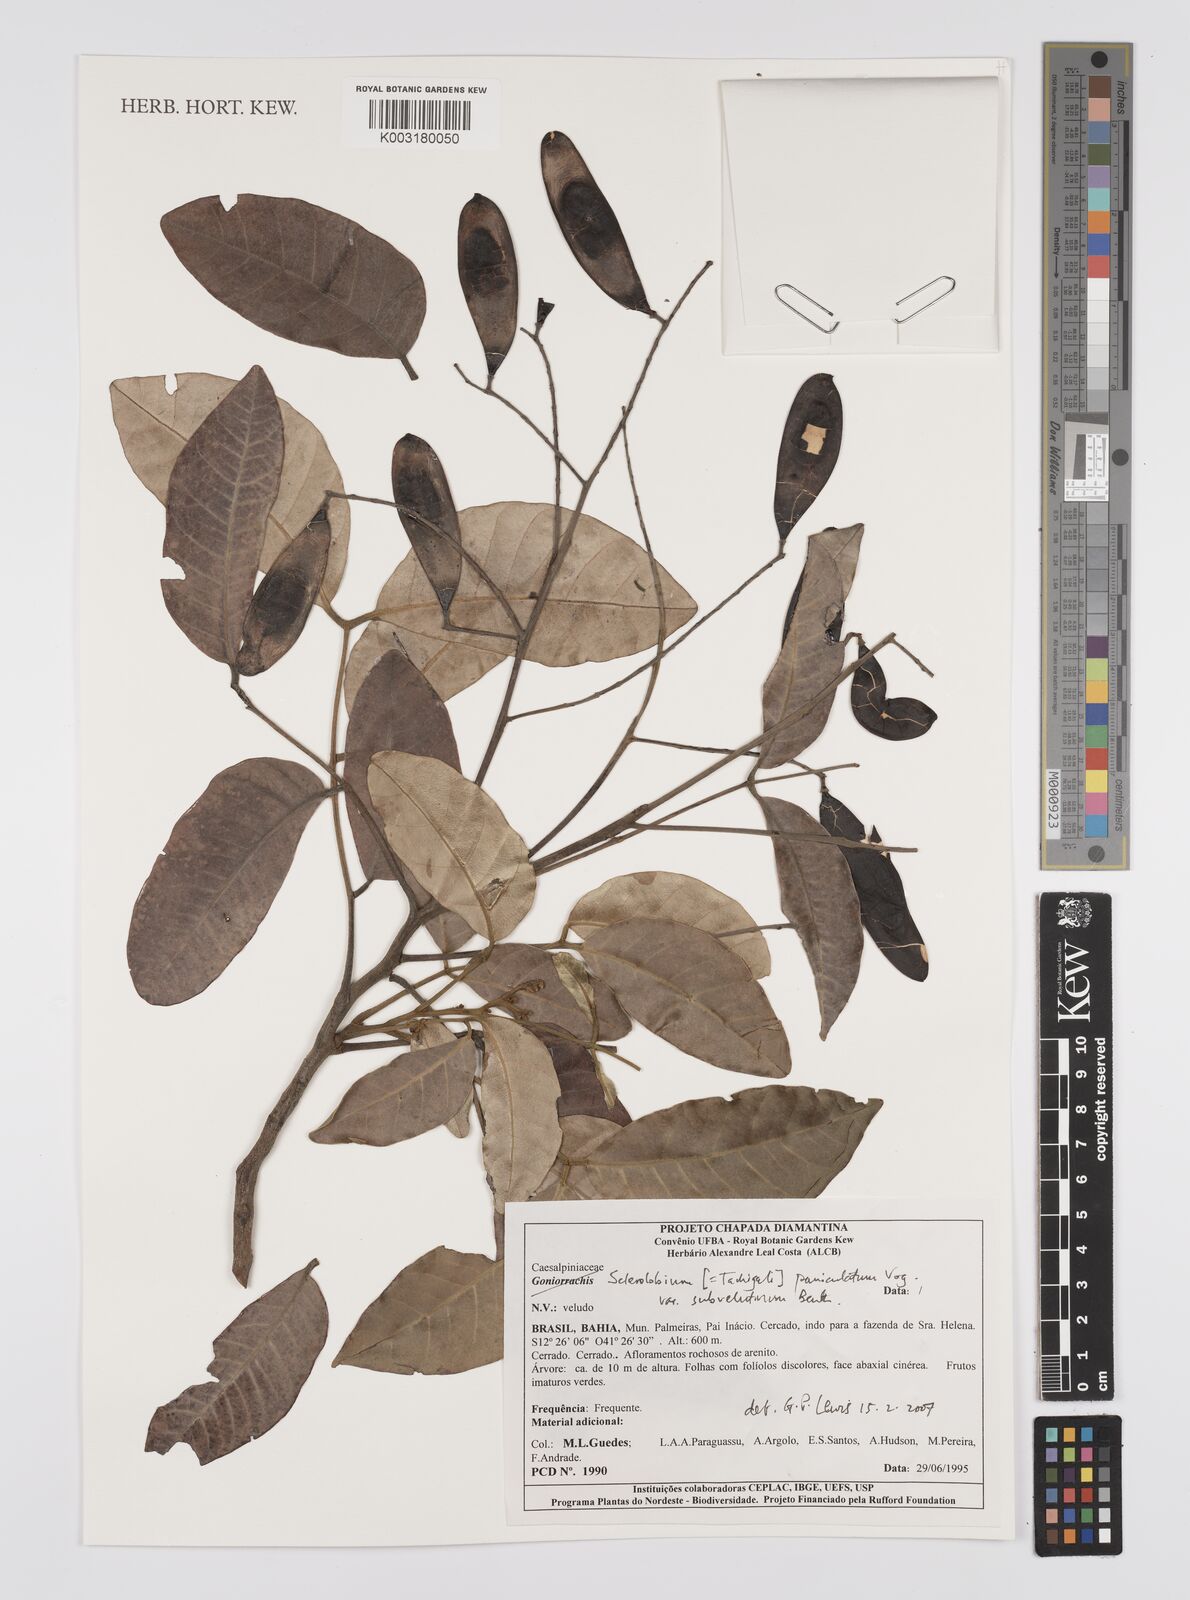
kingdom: Plantae
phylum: Tracheophyta
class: Magnoliopsida
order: Fabales
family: Fabaceae
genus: Tachigali
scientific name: Tachigali subvelutina
